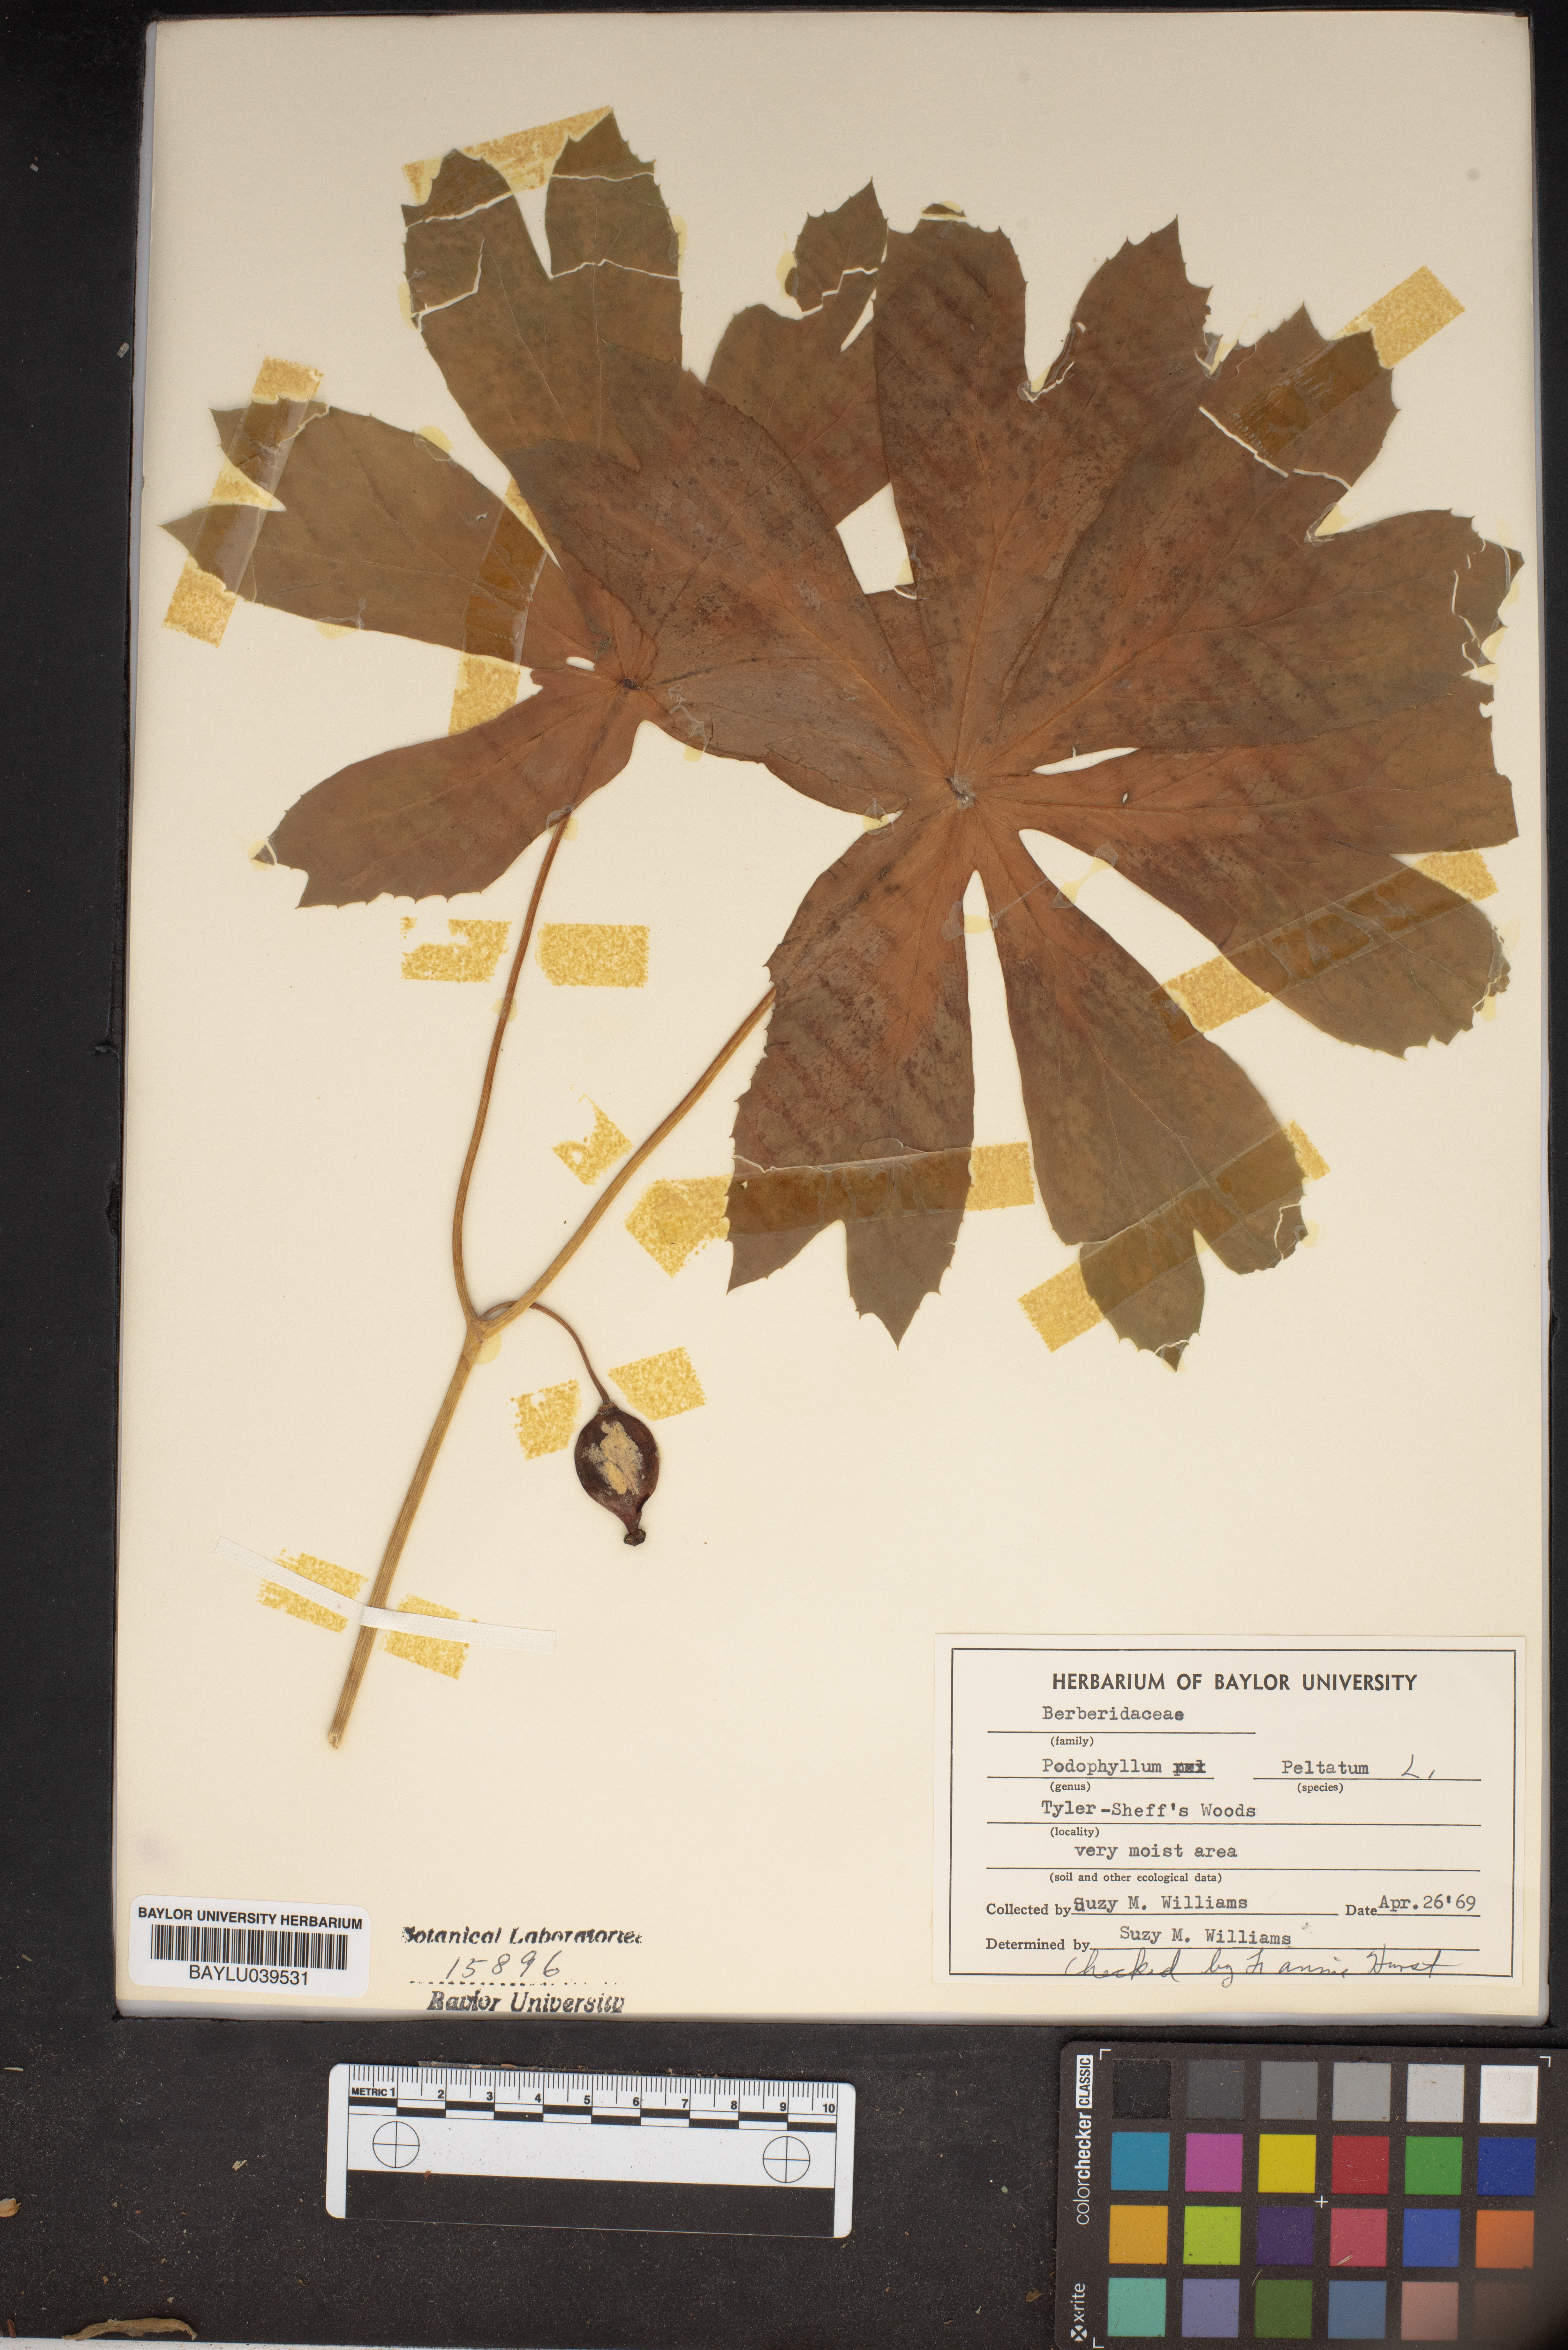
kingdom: Plantae
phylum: Tracheophyta
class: Magnoliopsida
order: Ranunculales
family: Berberidaceae
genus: Podophyllum
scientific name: Podophyllum peltatum
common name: Wild mandrake
